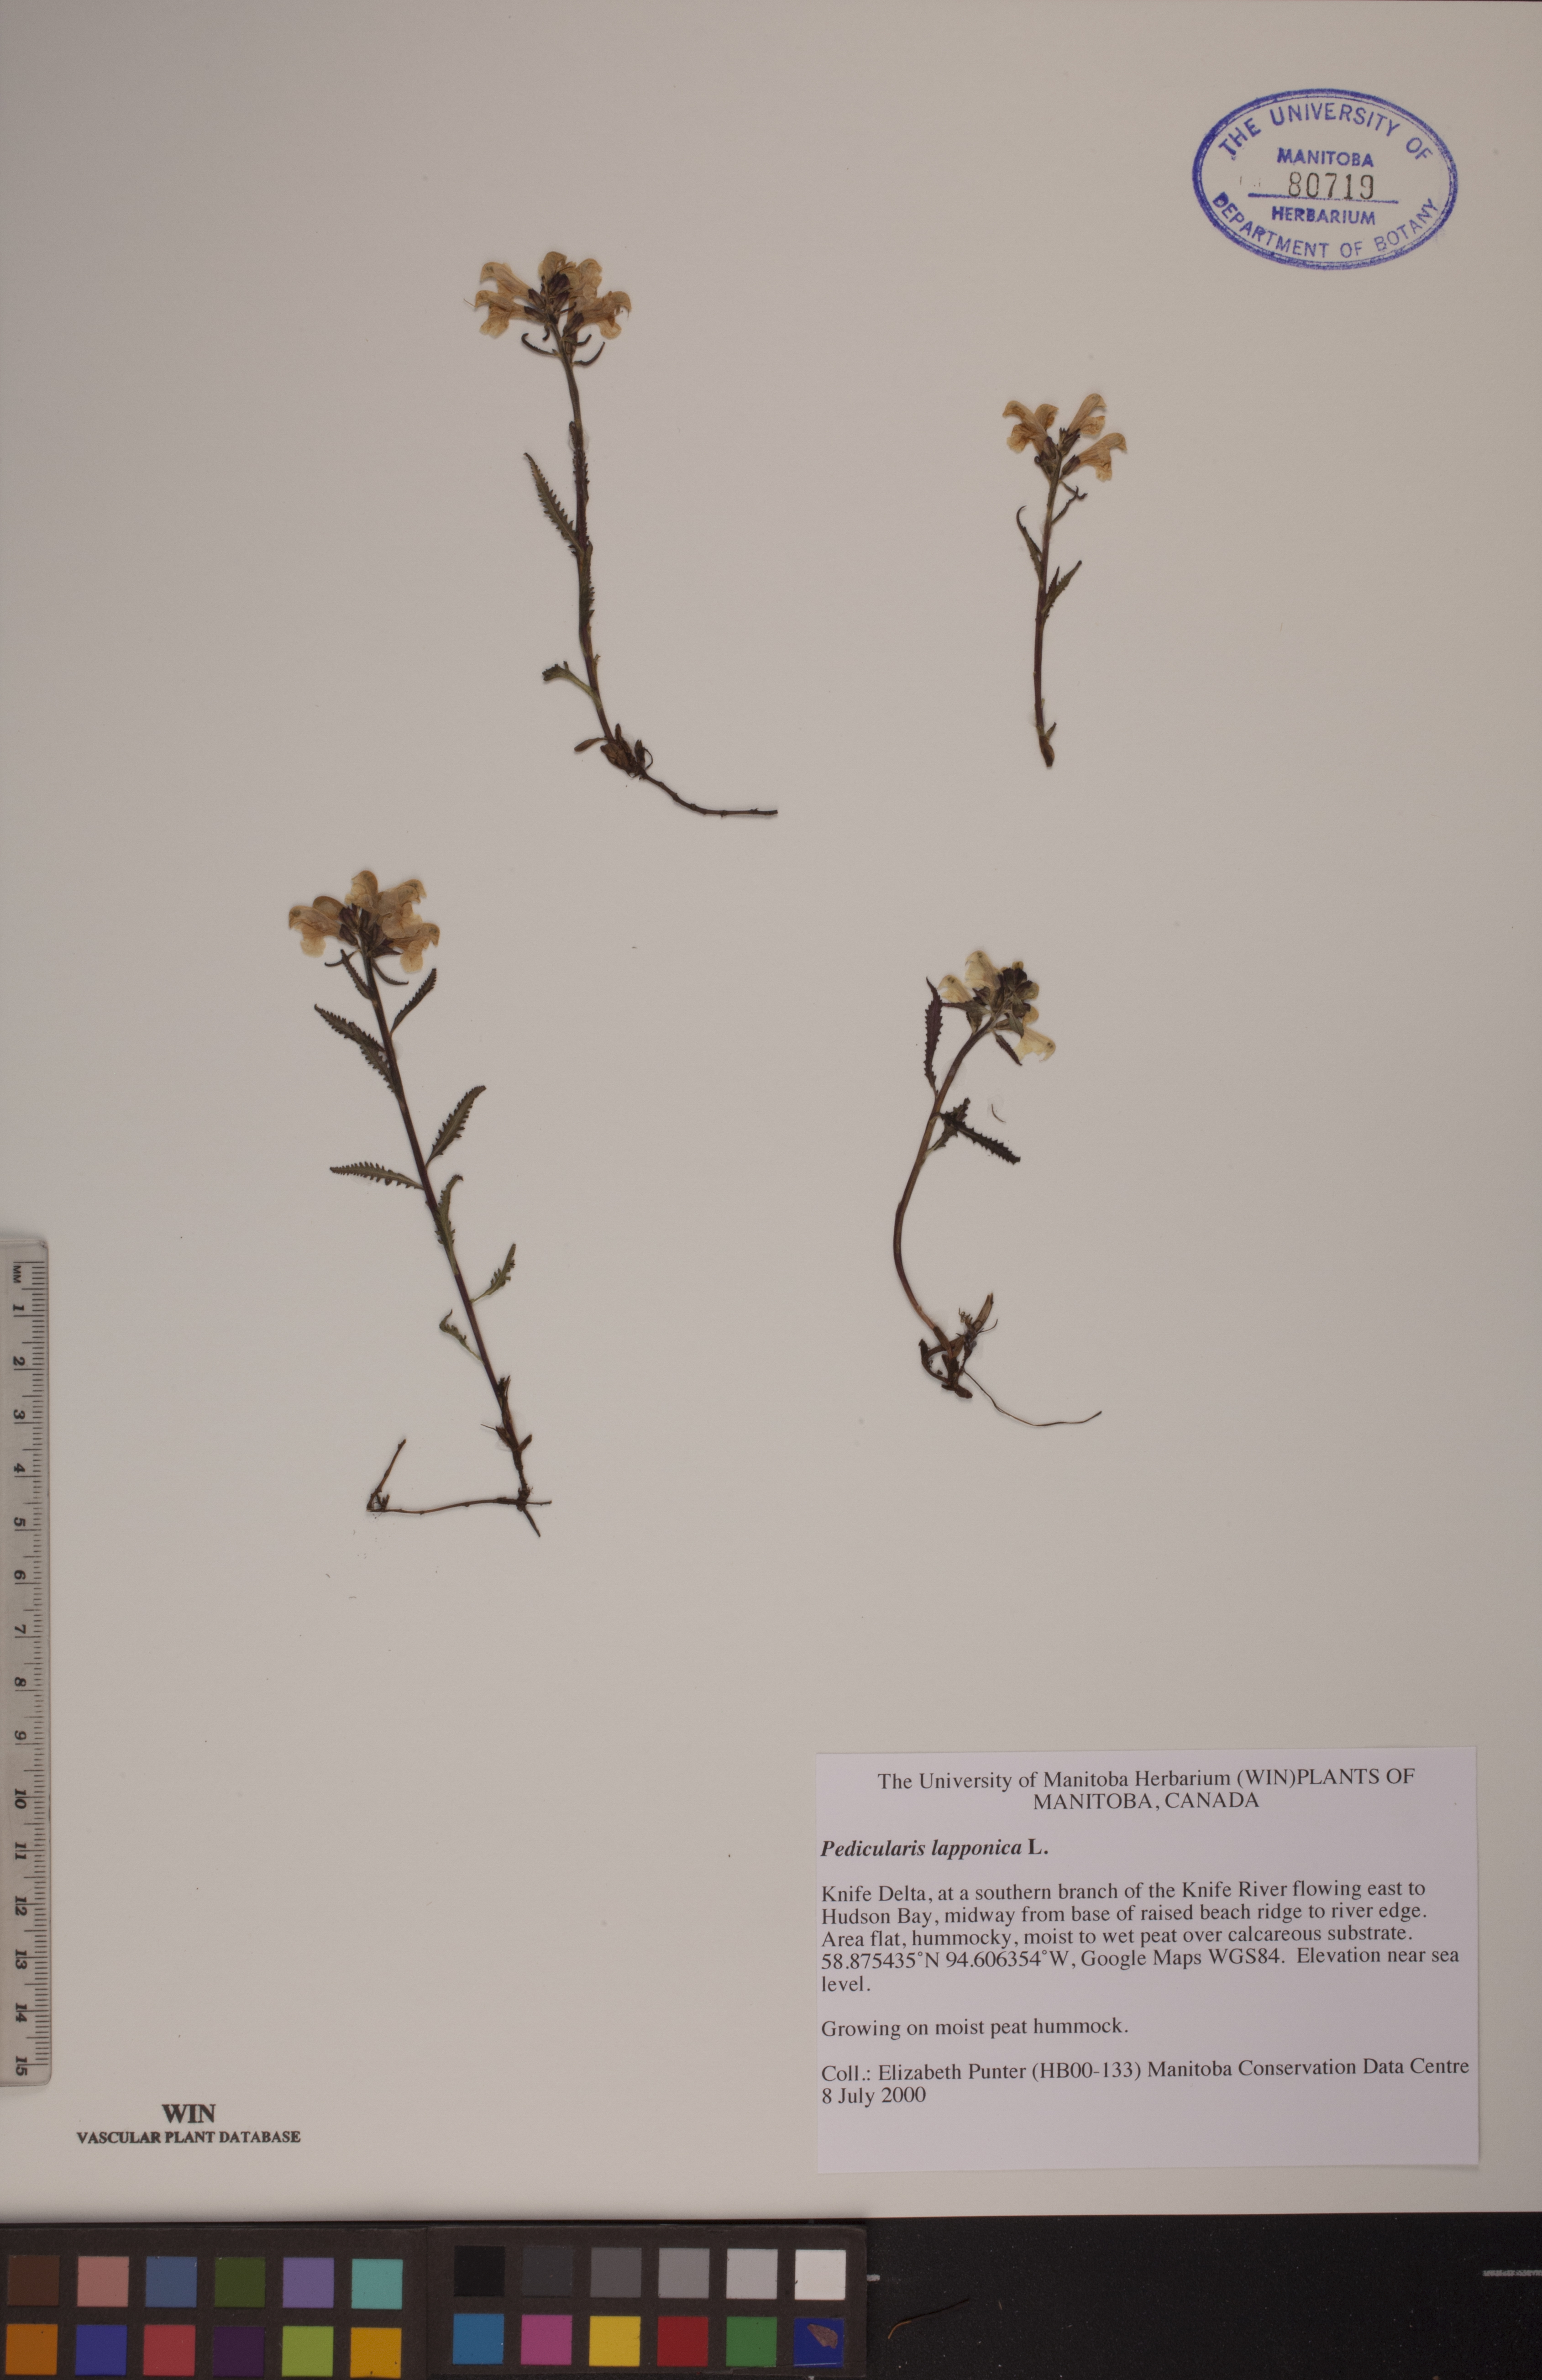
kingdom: Plantae
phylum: Tracheophyta
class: Magnoliopsida
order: Lamiales
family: Orobanchaceae
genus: Pedicularis
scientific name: Pedicularis lapponica
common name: Lapland lousewort
